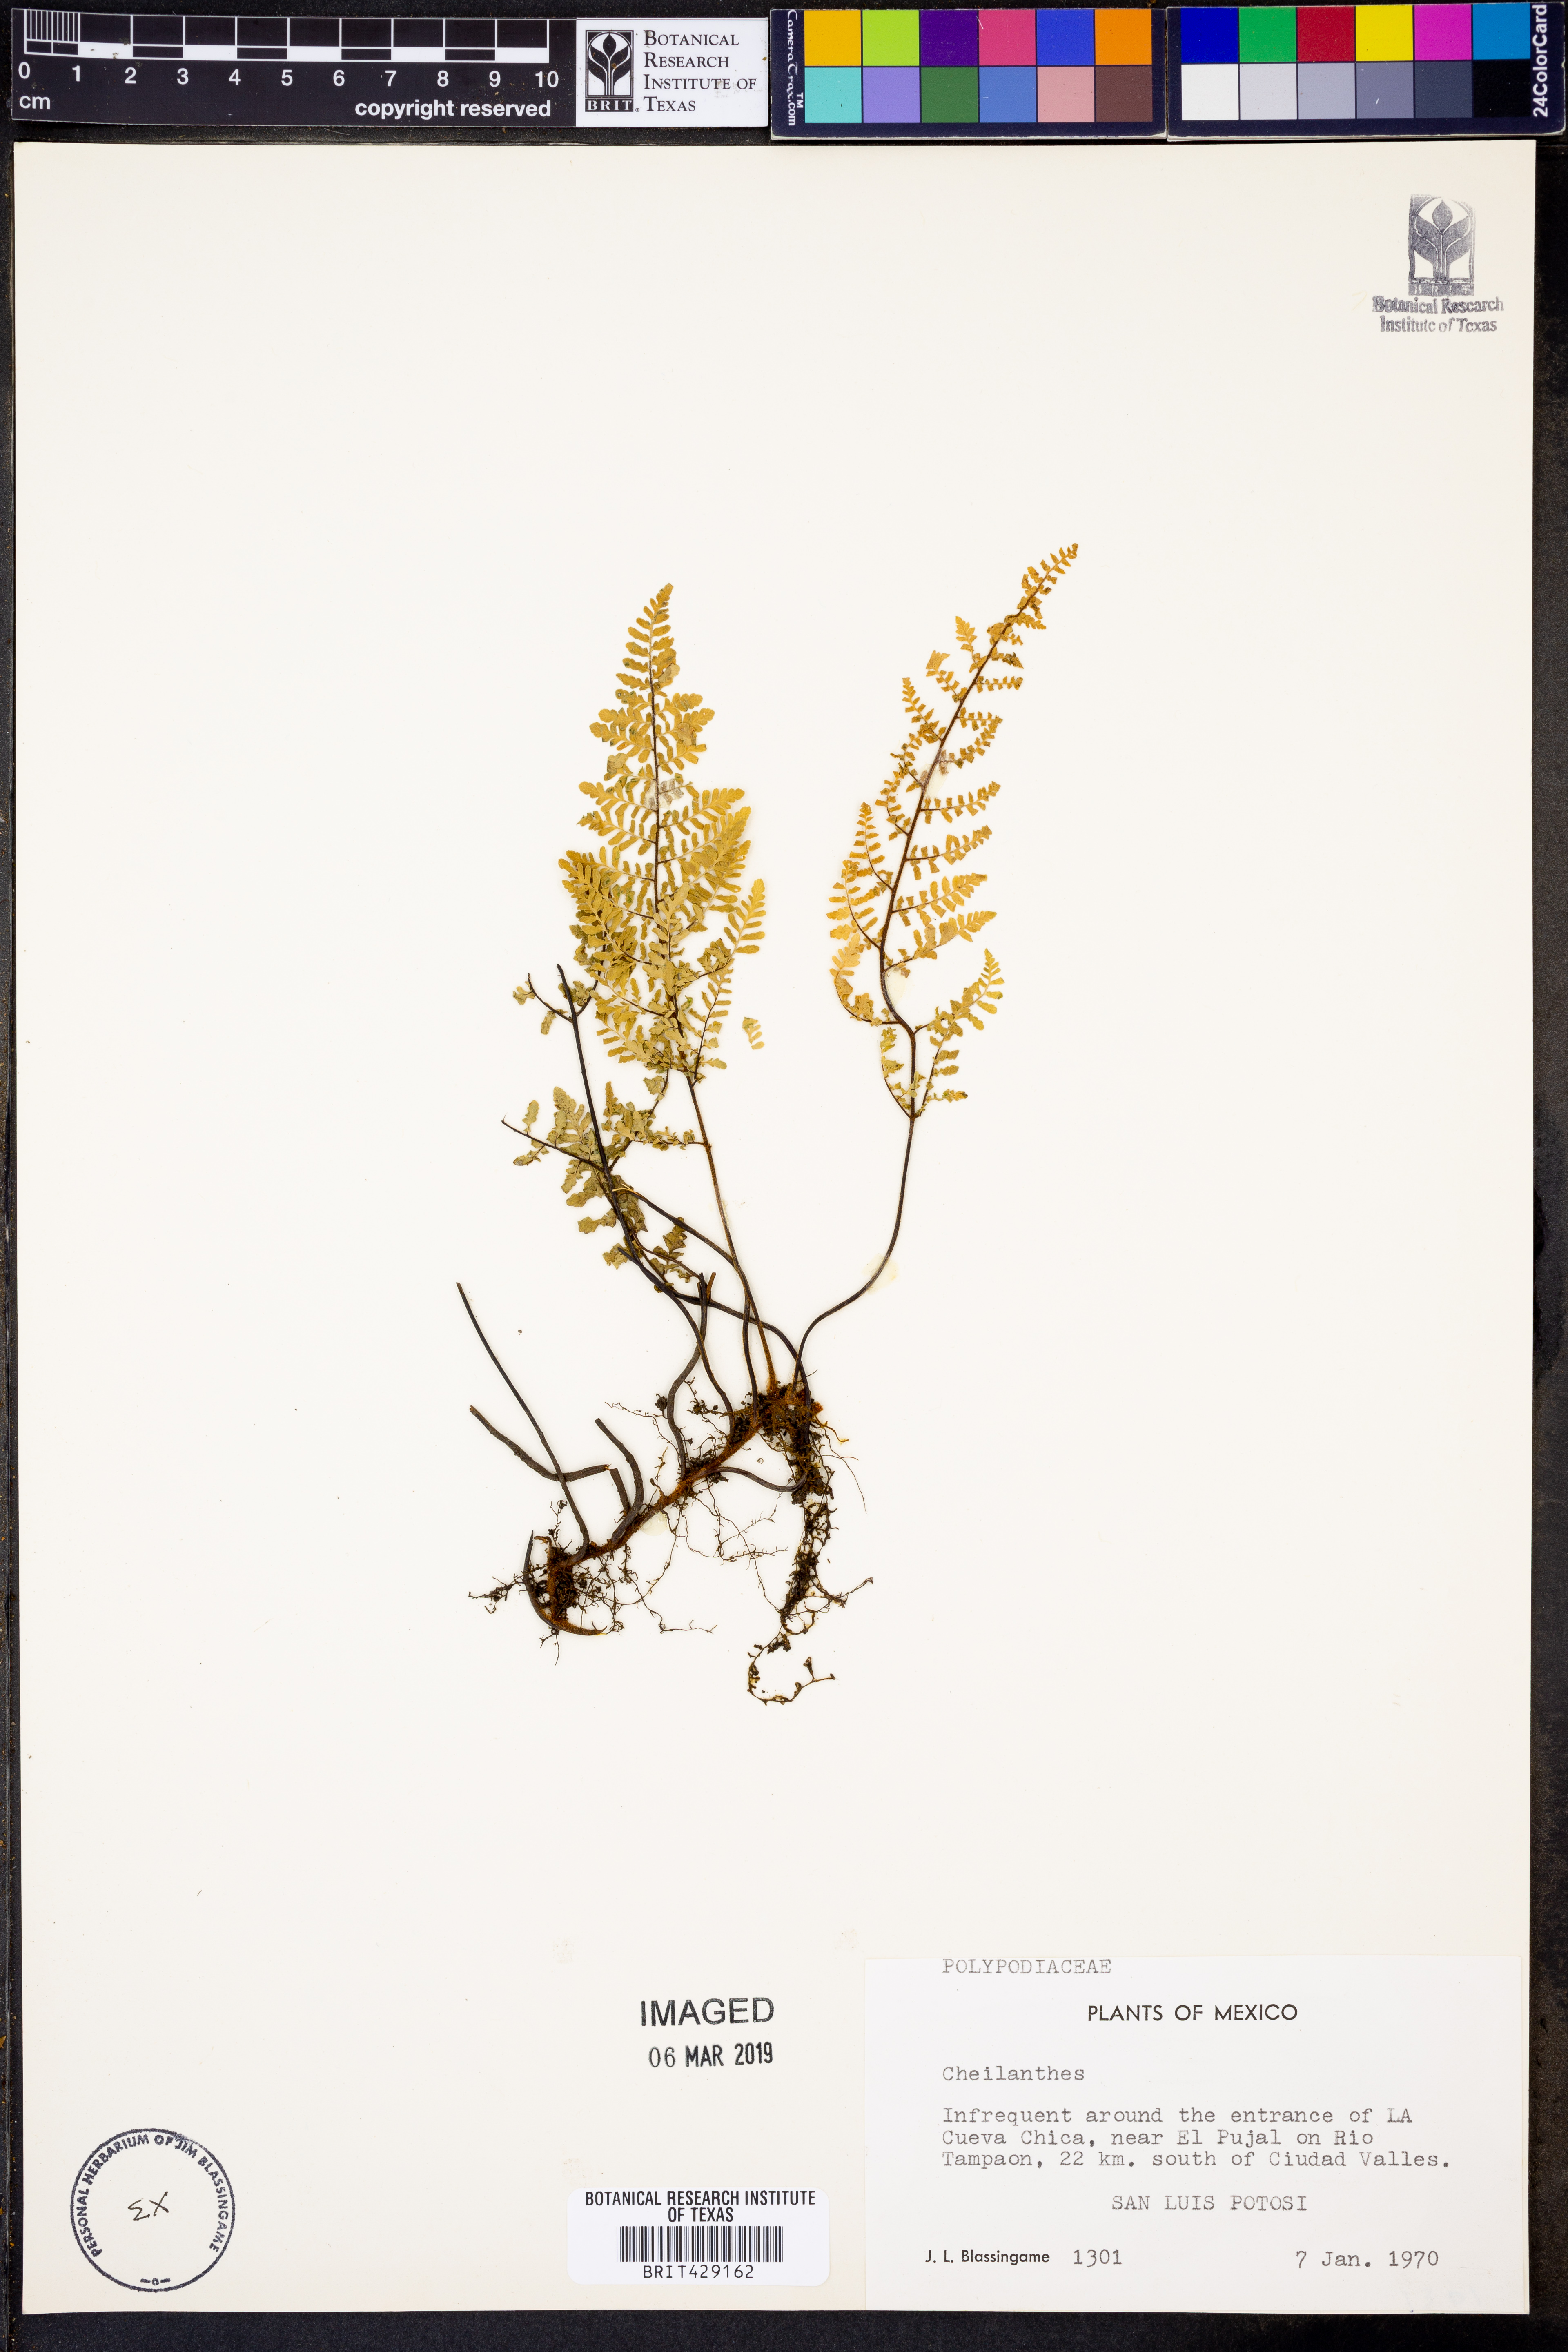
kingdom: Plantae
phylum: Tracheophyta
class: Polypodiopsida
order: Polypodiales
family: Pteridaceae
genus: Cheilanthes
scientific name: Cheilanthes
